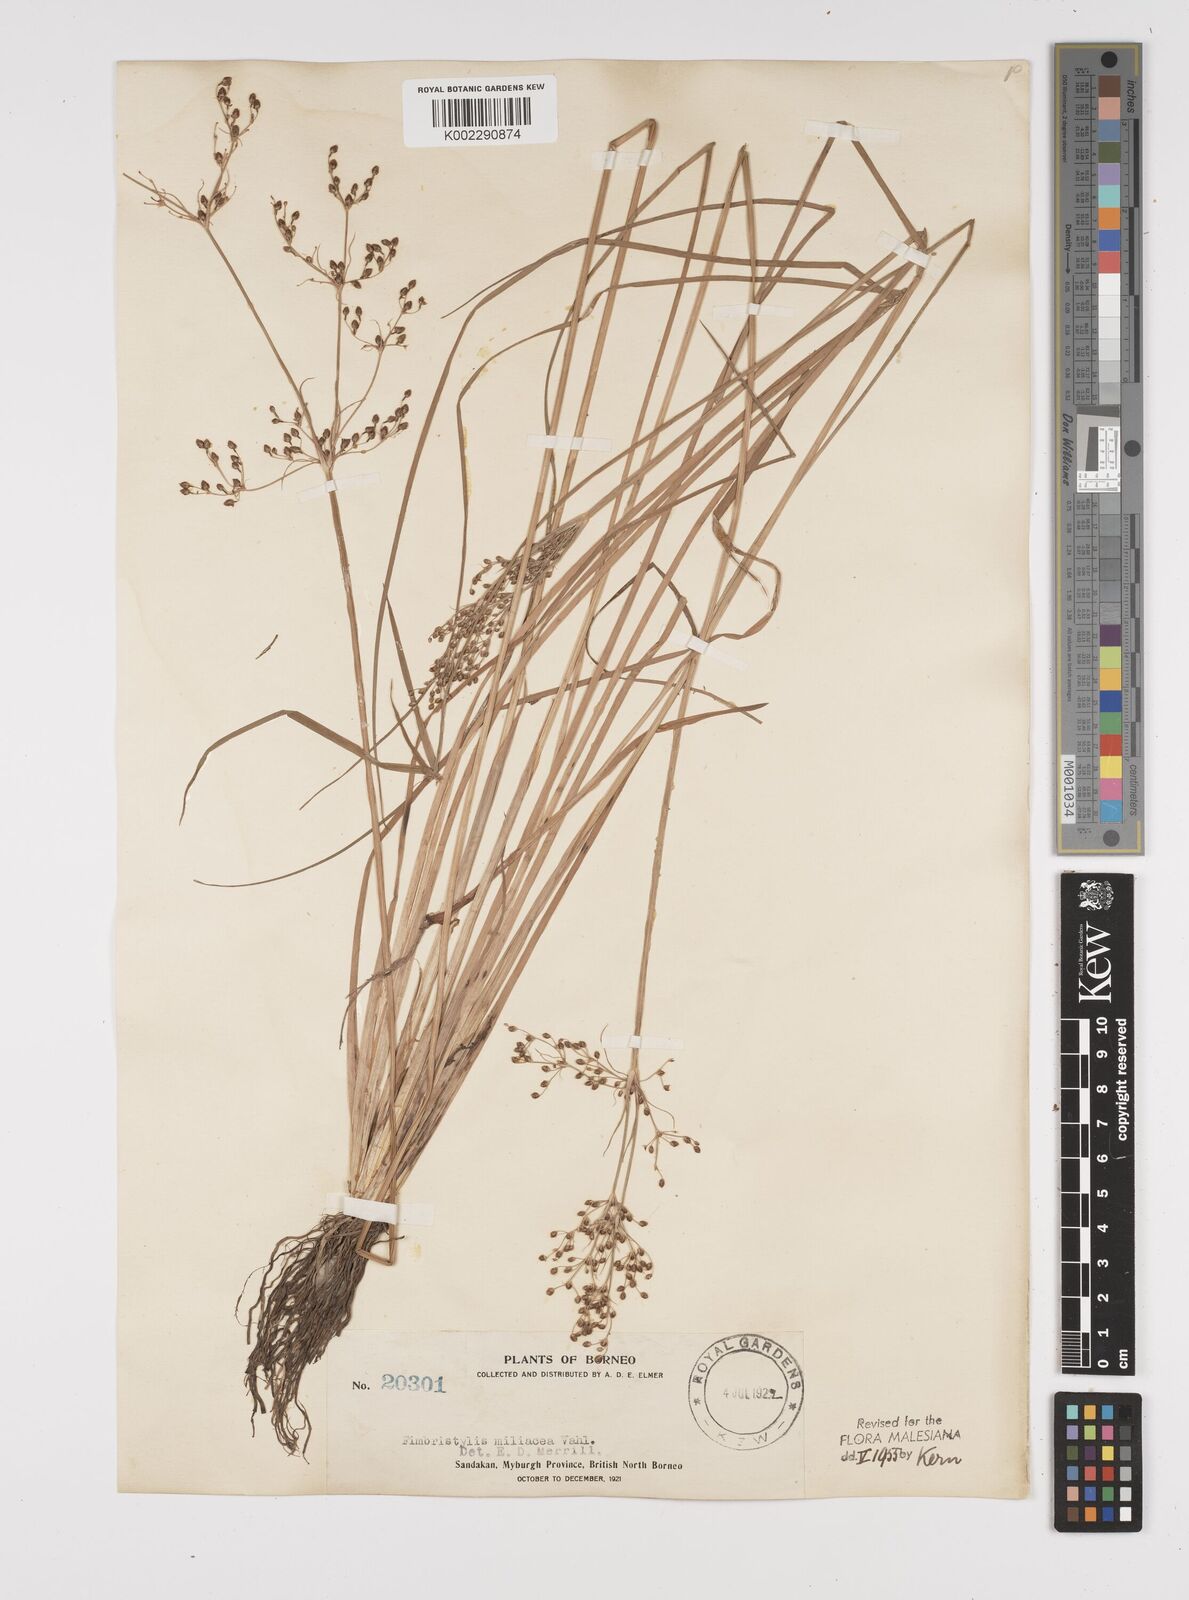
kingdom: Plantae
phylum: Tracheophyta
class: Liliopsida
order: Poales
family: Cyperaceae
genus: Fimbristylis
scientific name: Fimbristylis littoralis
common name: Fimbry
